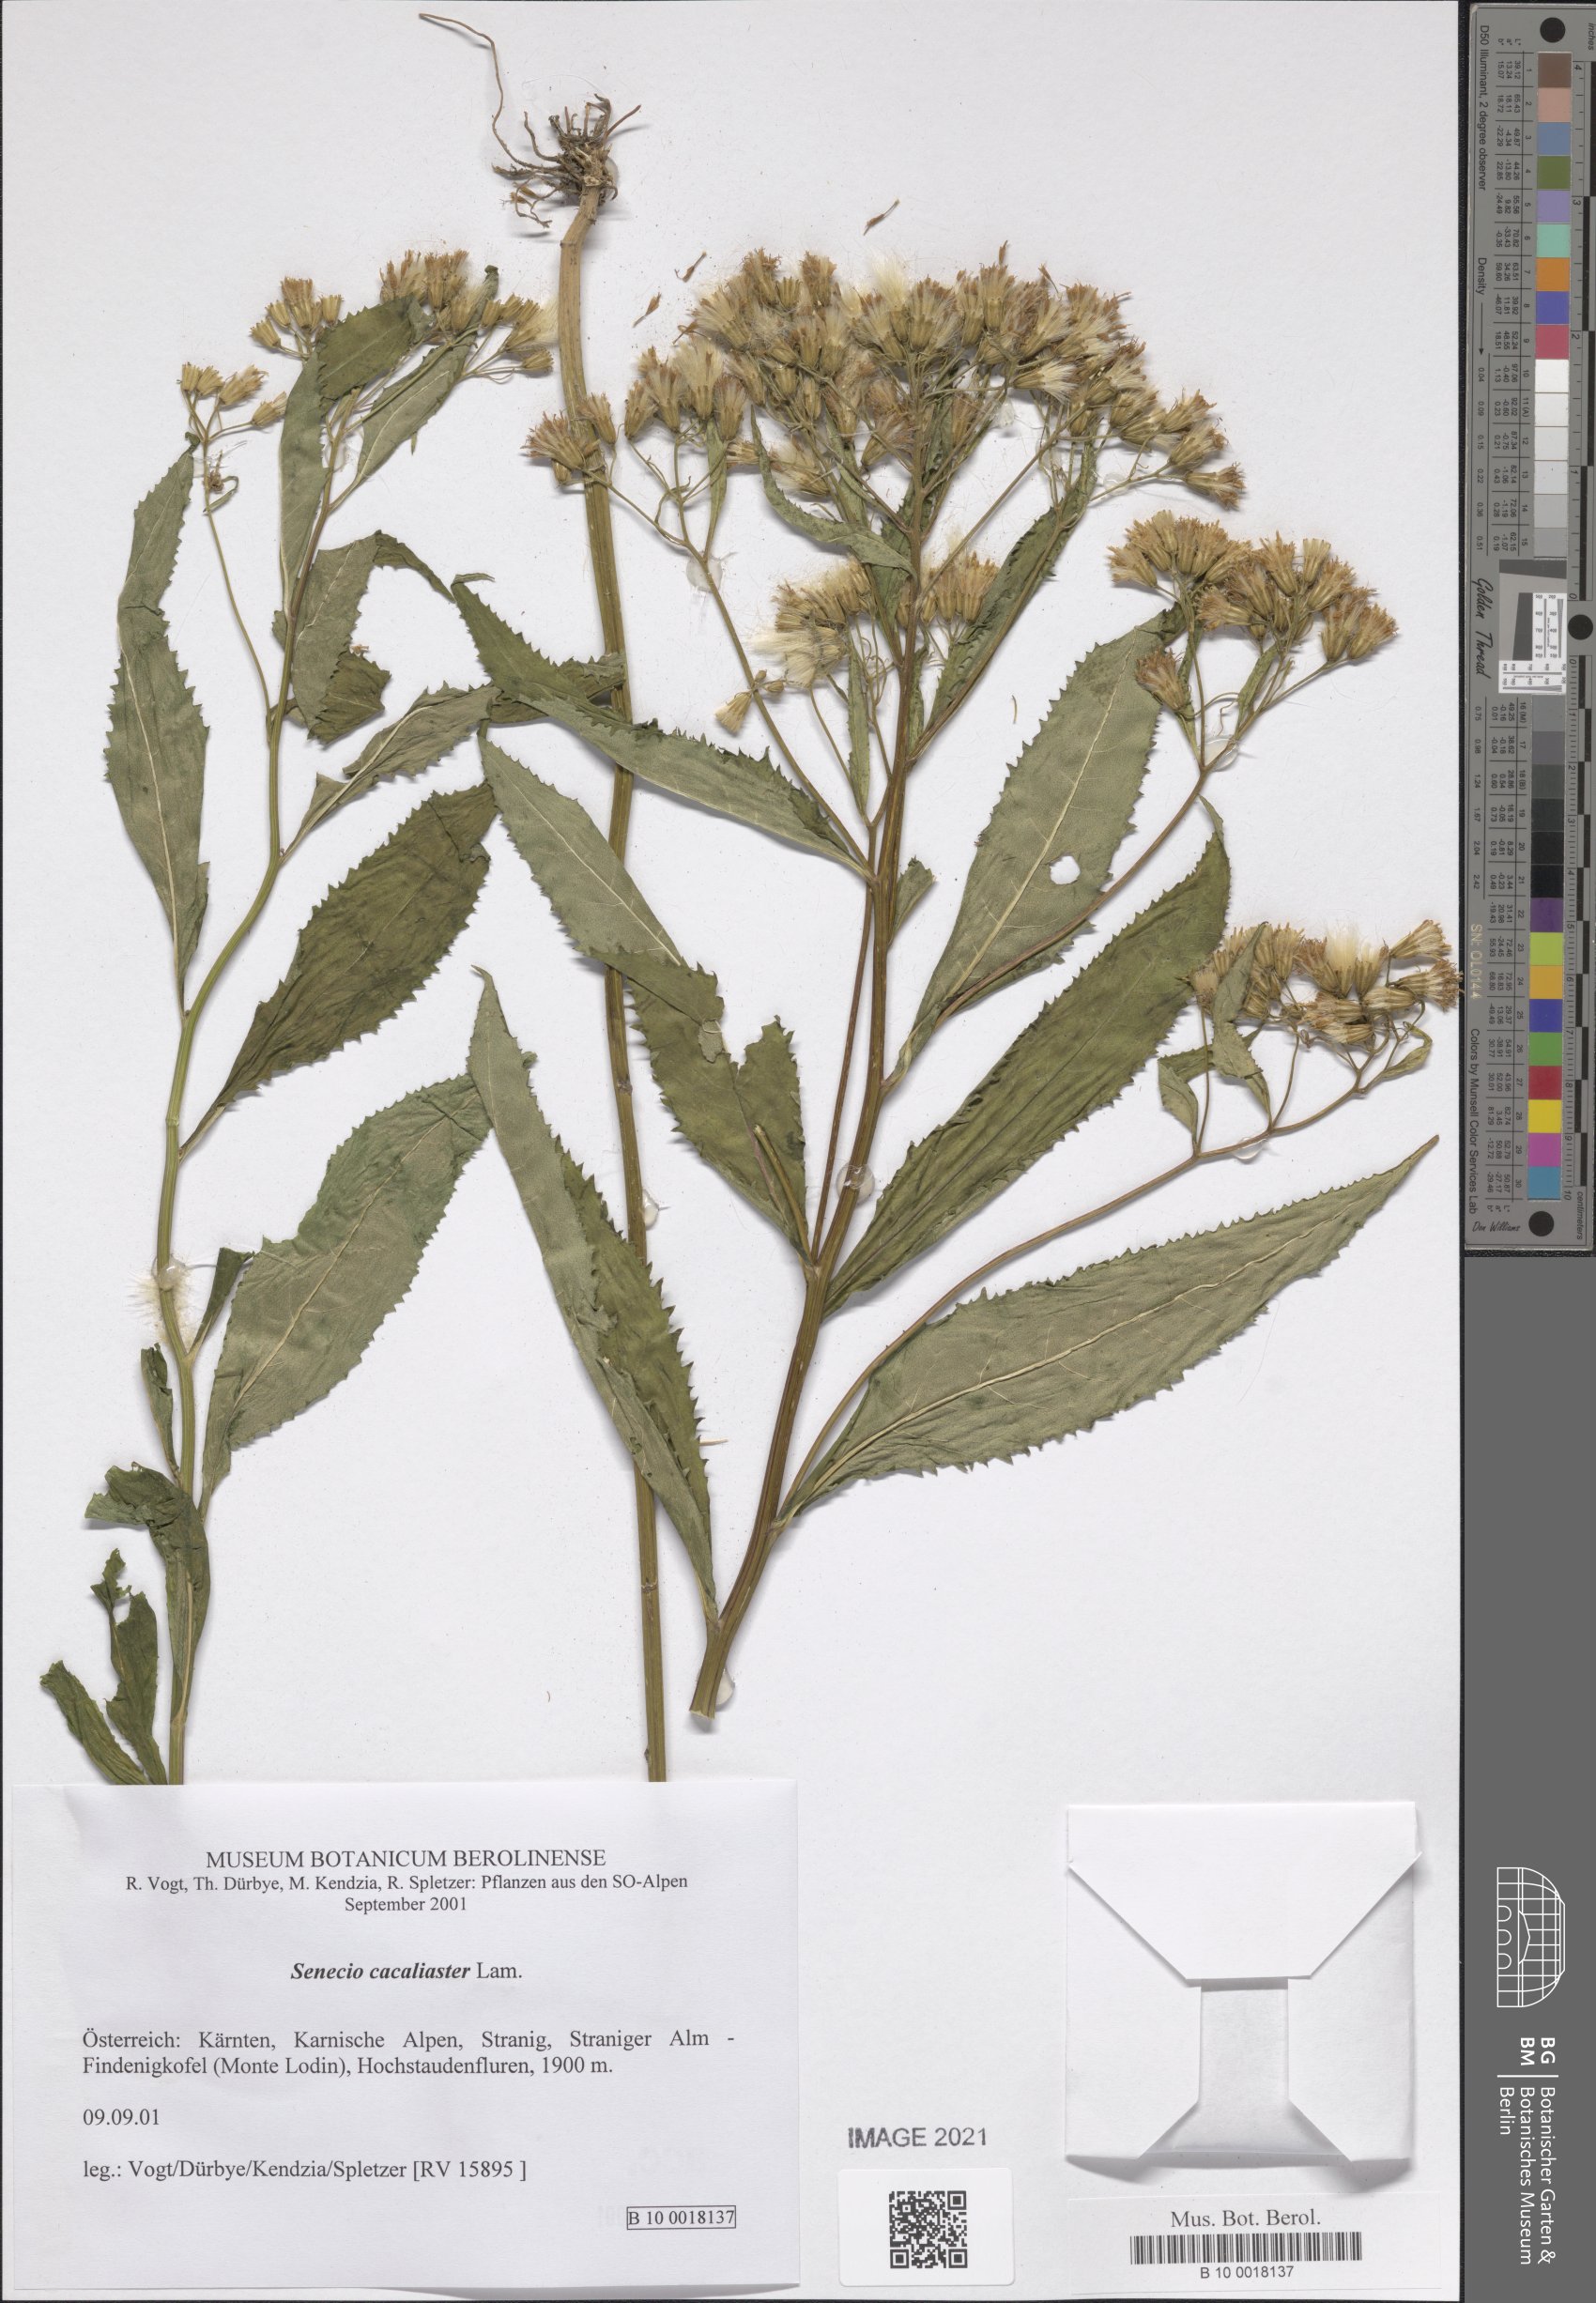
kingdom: Plantae
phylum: Tracheophyta
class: Magnoliopsida
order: Asterales
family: Asteraceae
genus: Senecio
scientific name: Senecio cacaliaster
